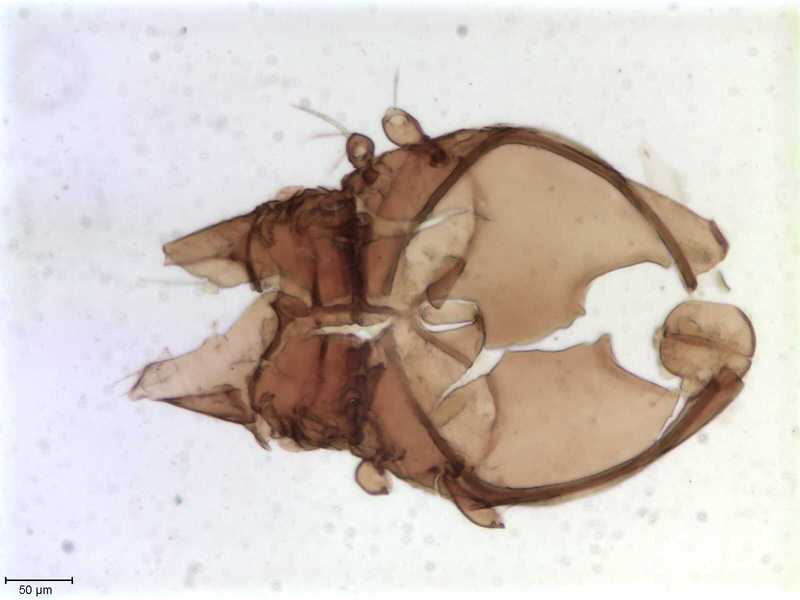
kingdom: Animalia
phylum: Arthropoda
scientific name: Arthropoda
